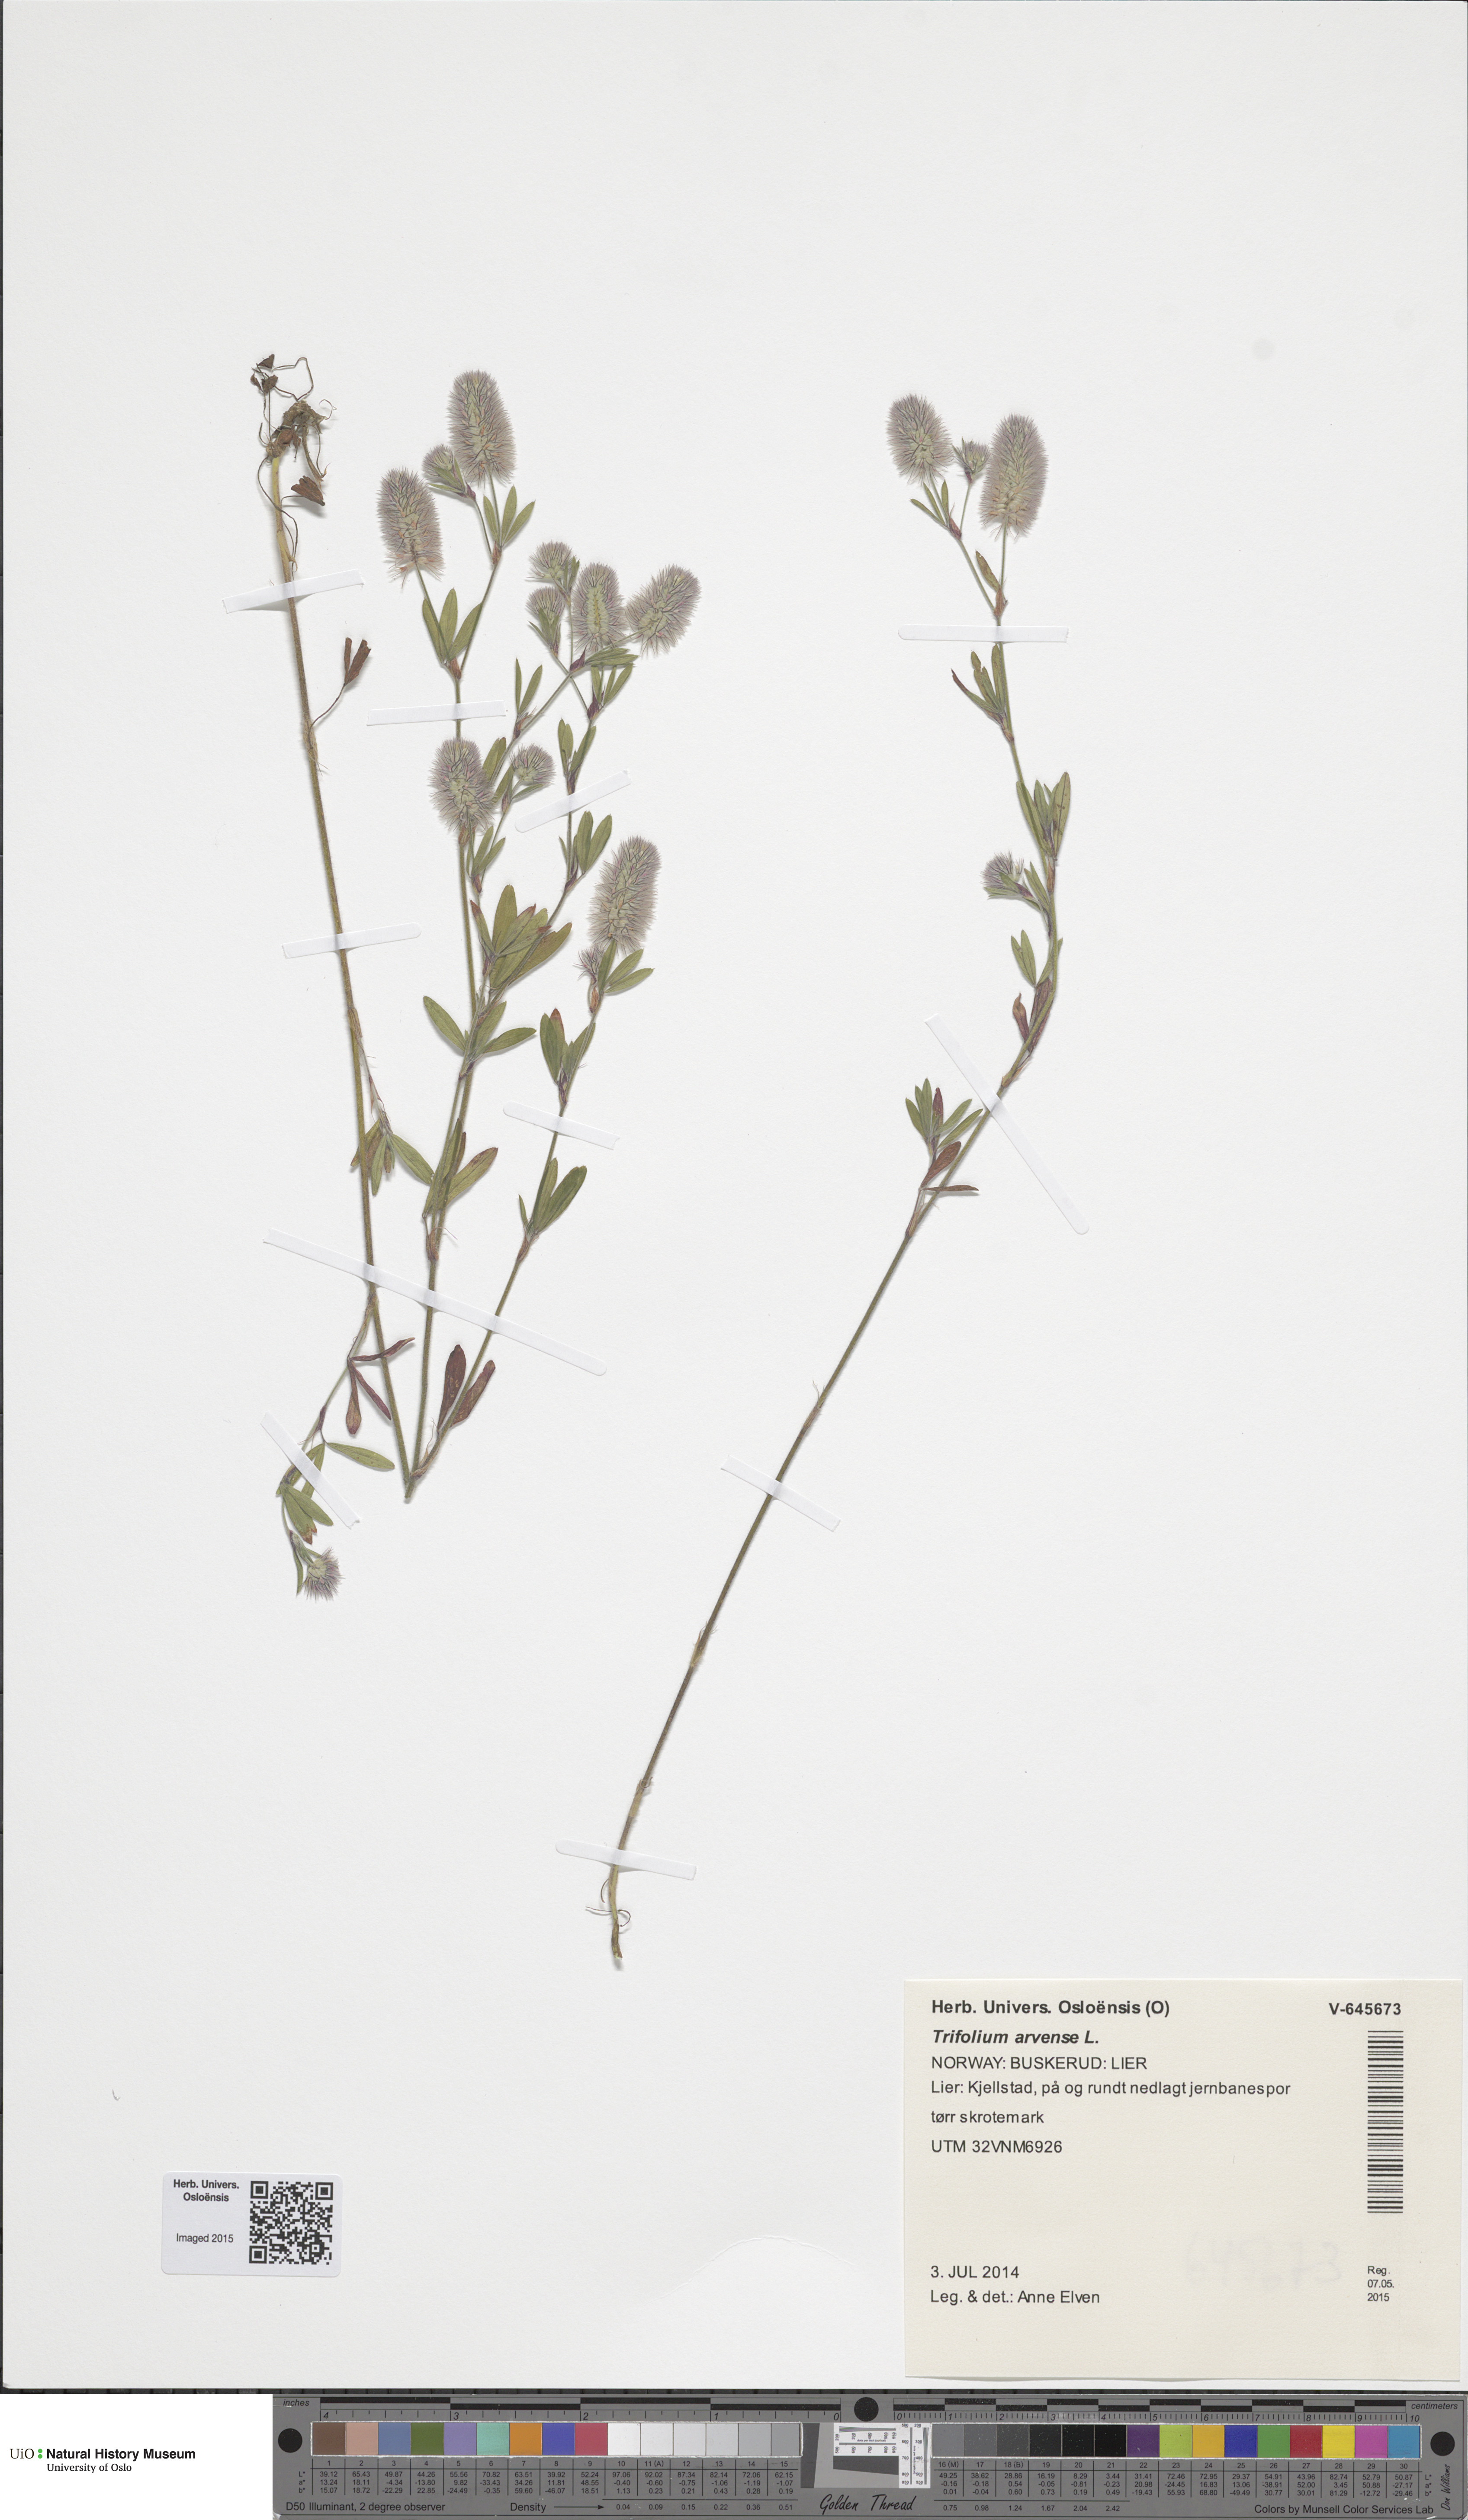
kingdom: Plantae
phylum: Tracheophyta
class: Magnoliopsida
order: Fabales
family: Fabaceae
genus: Trifolium
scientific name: Trifolium arvense
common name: Hare's-foot clover
